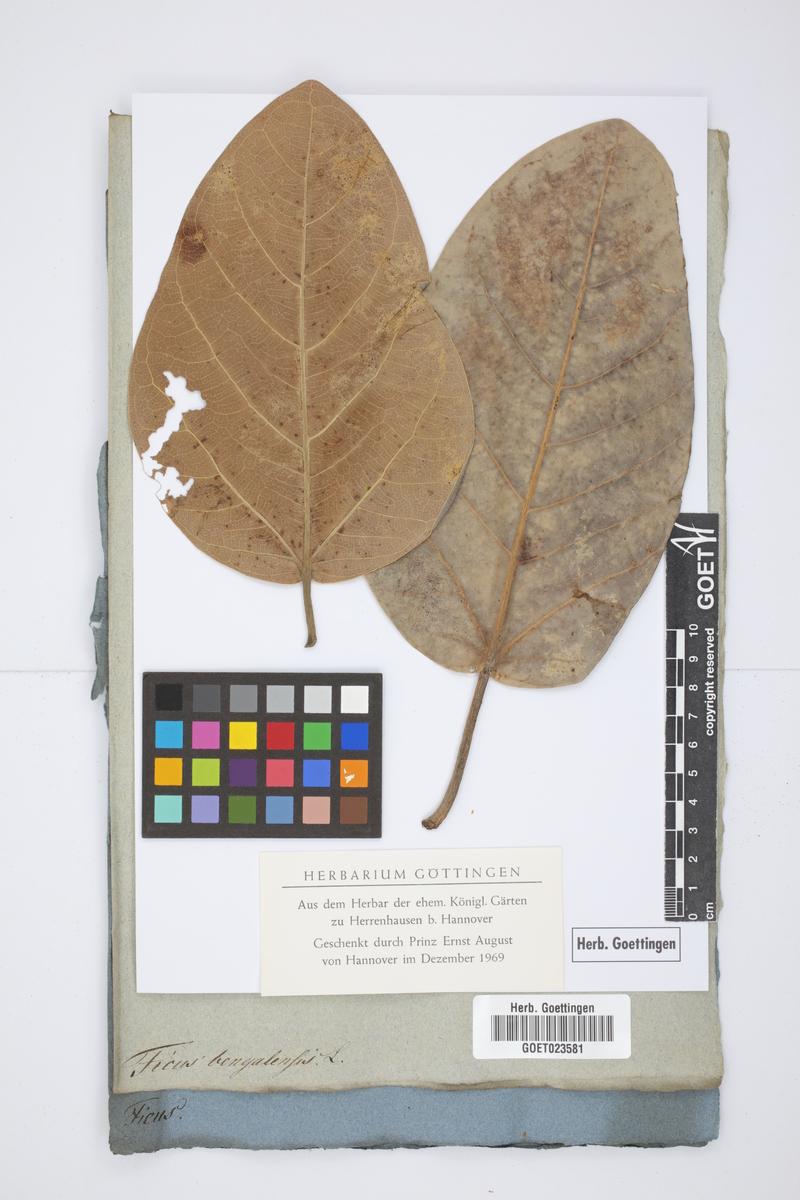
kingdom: Plantae
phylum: Tracheophyta
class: Magnoliopsida
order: Rosales
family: Moraceae
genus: Ficus
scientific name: Ficus benghalensis
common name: Indian banyan
